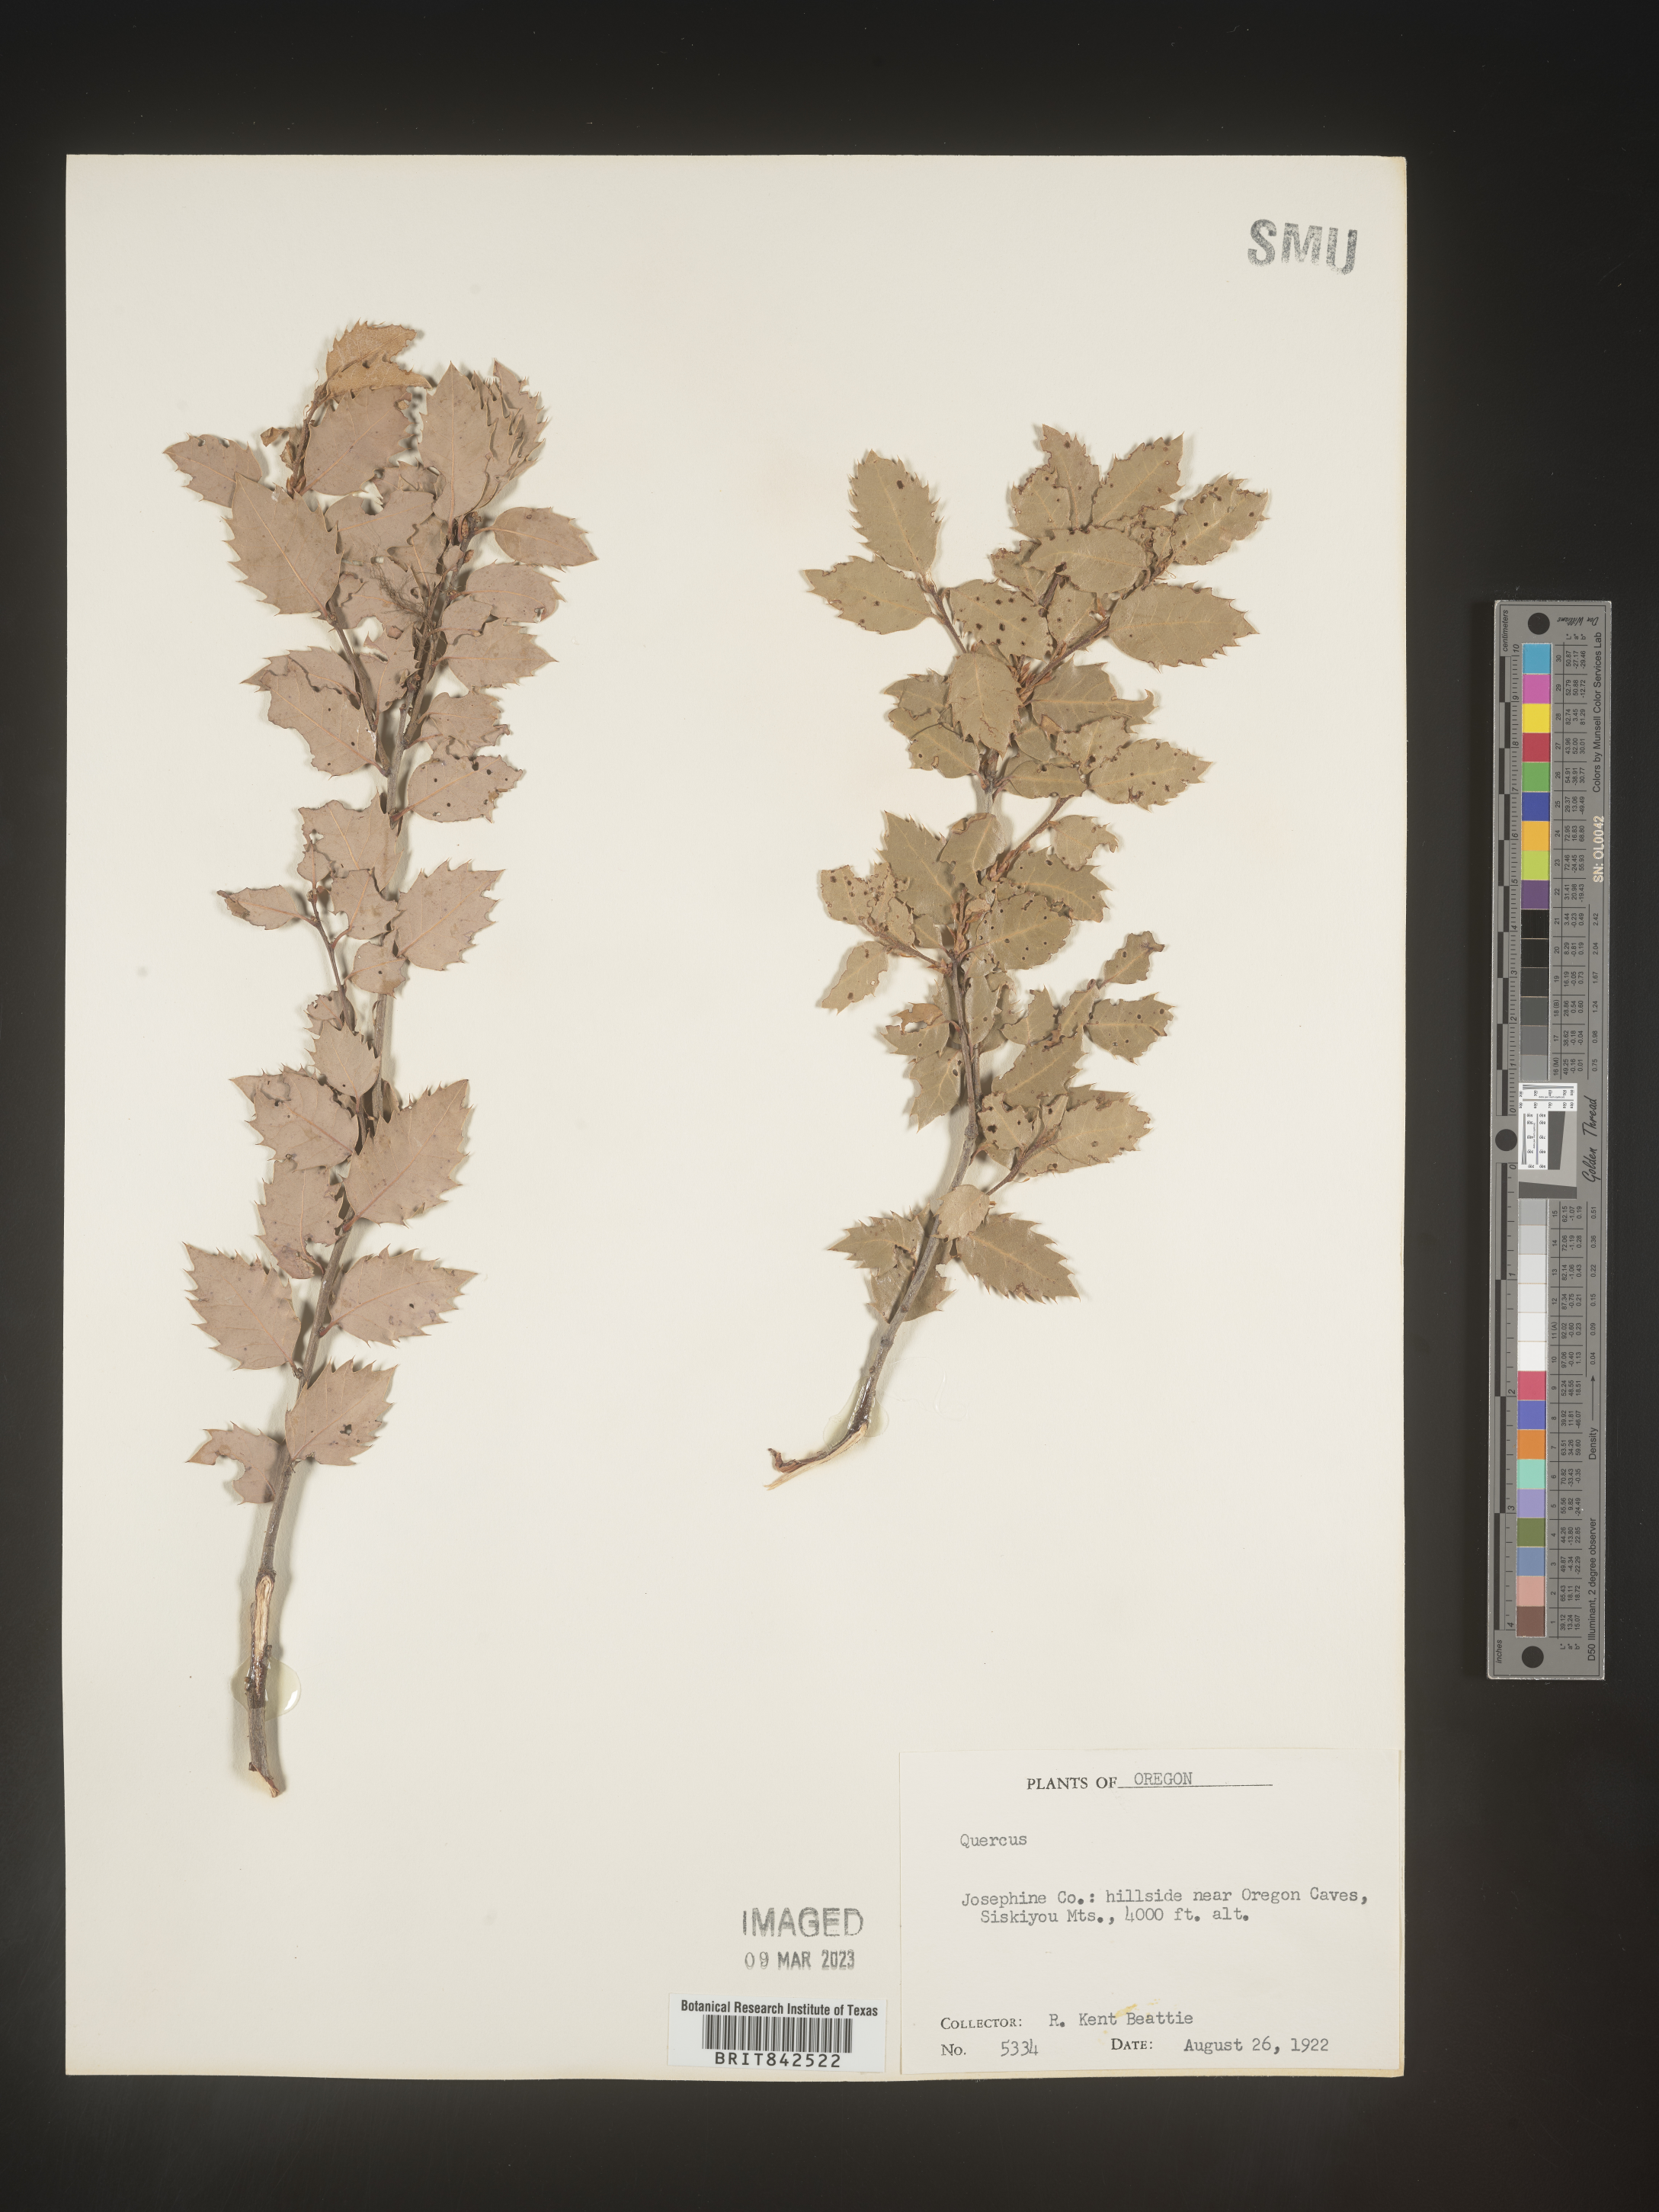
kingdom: Plantae
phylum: Tracheophyta
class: Magnoliopsida
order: Fagales
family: Fagaceae
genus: Quercus
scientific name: Quercus
